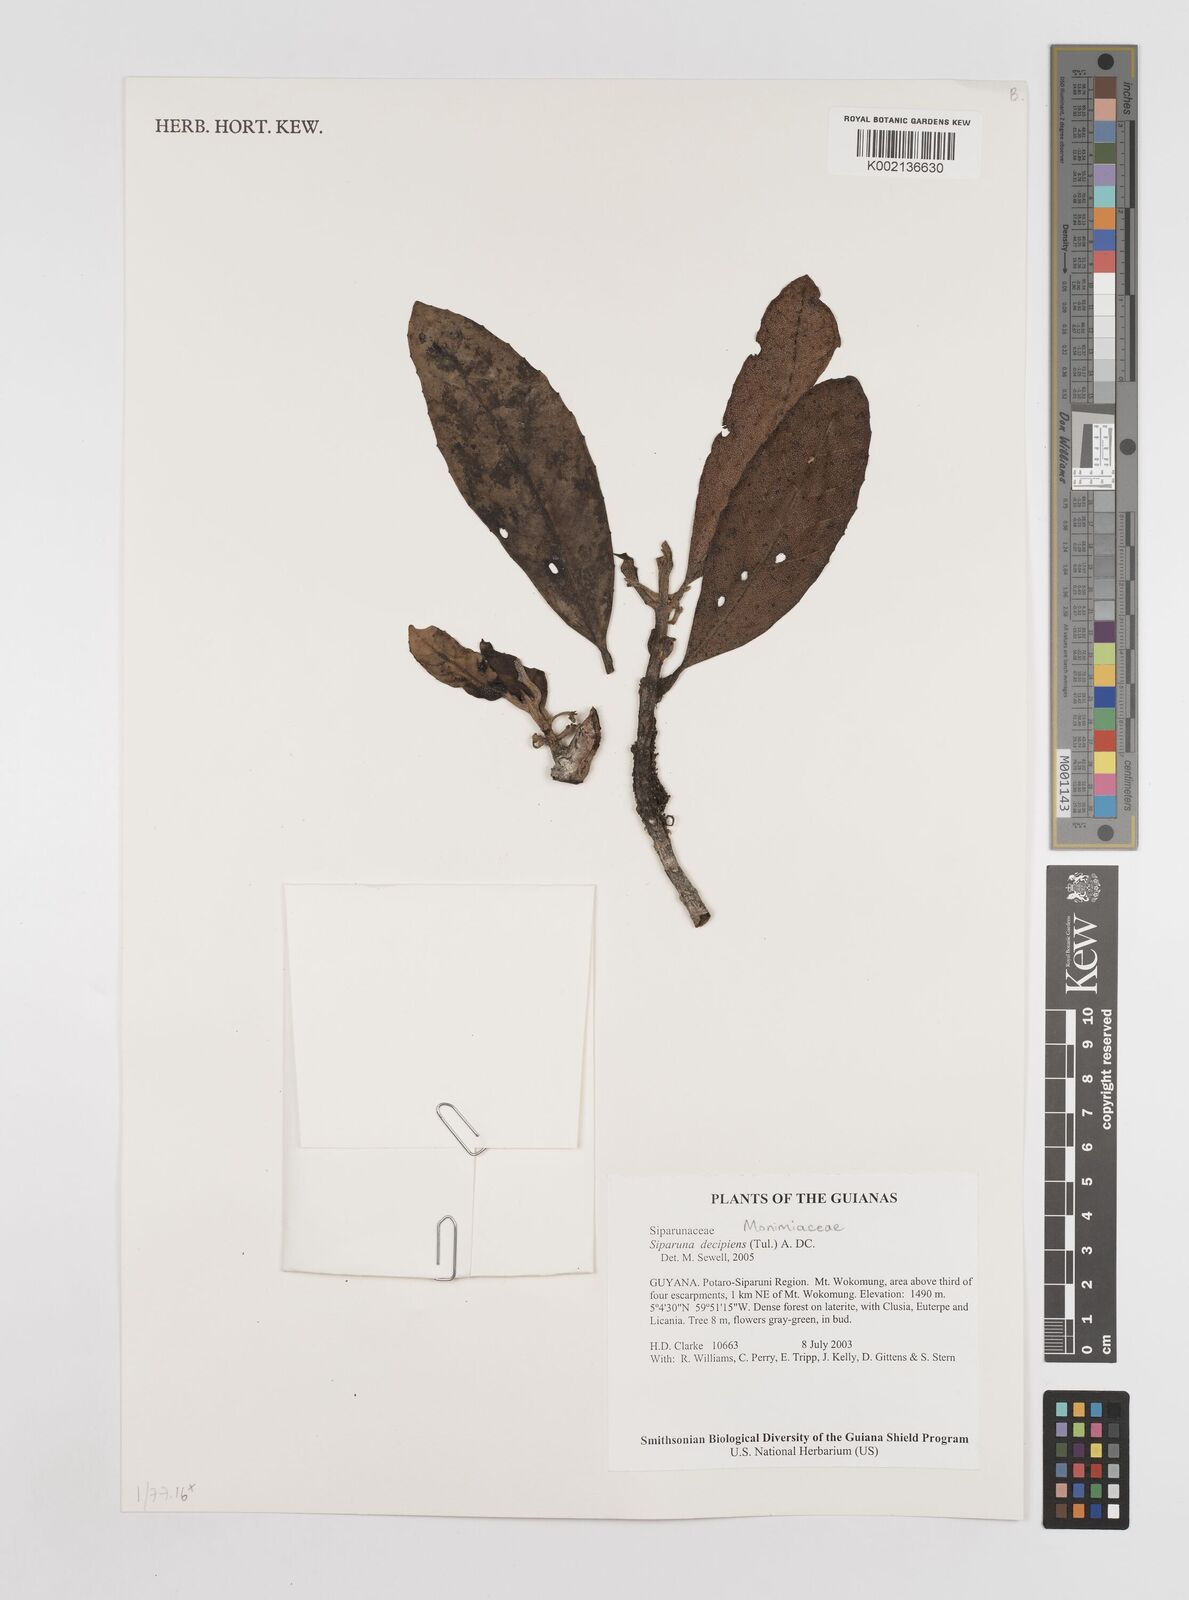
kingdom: Plantae
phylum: Tracheophyta
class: Magnoliopsida
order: Laurales
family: Siparunaceae
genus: Siparuna
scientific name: Siparuna decipiens
